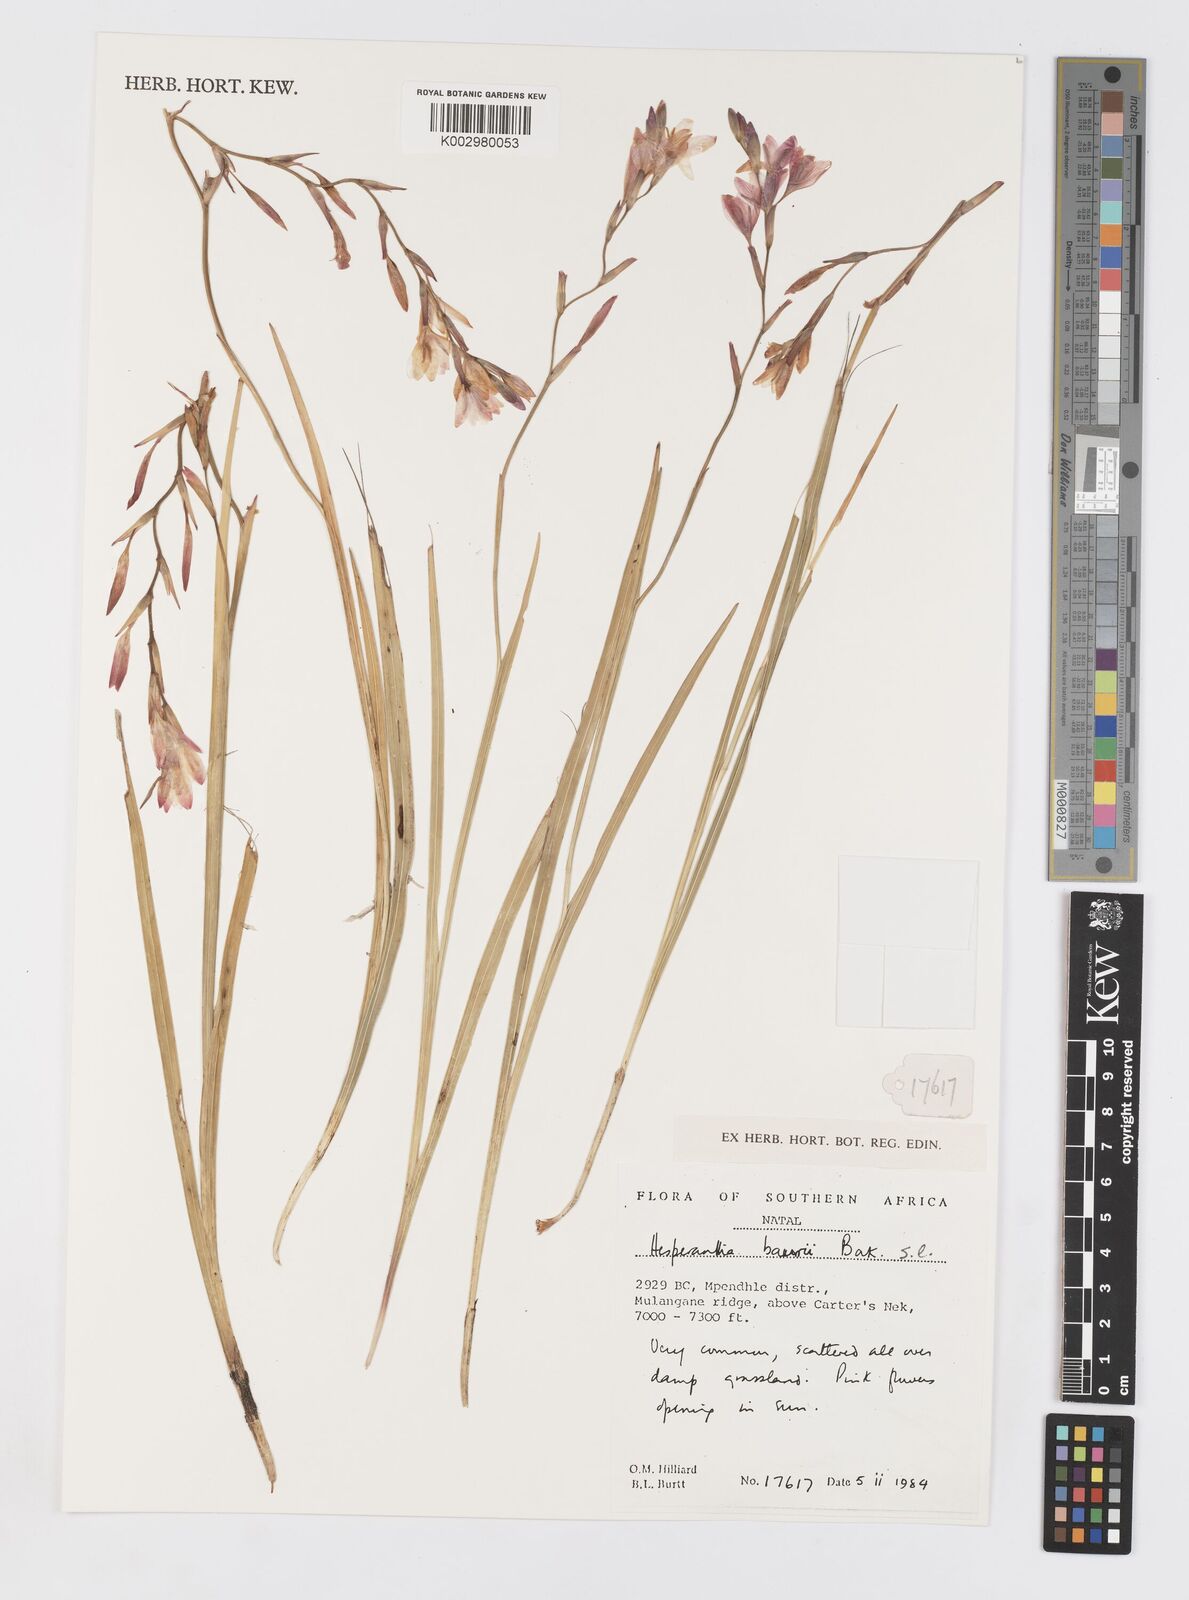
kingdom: Plantae
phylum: Tracheophyta
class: Liliopsida
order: Asparagales
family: Iridaceae
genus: Hesperantha
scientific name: Hesperantha baurii
